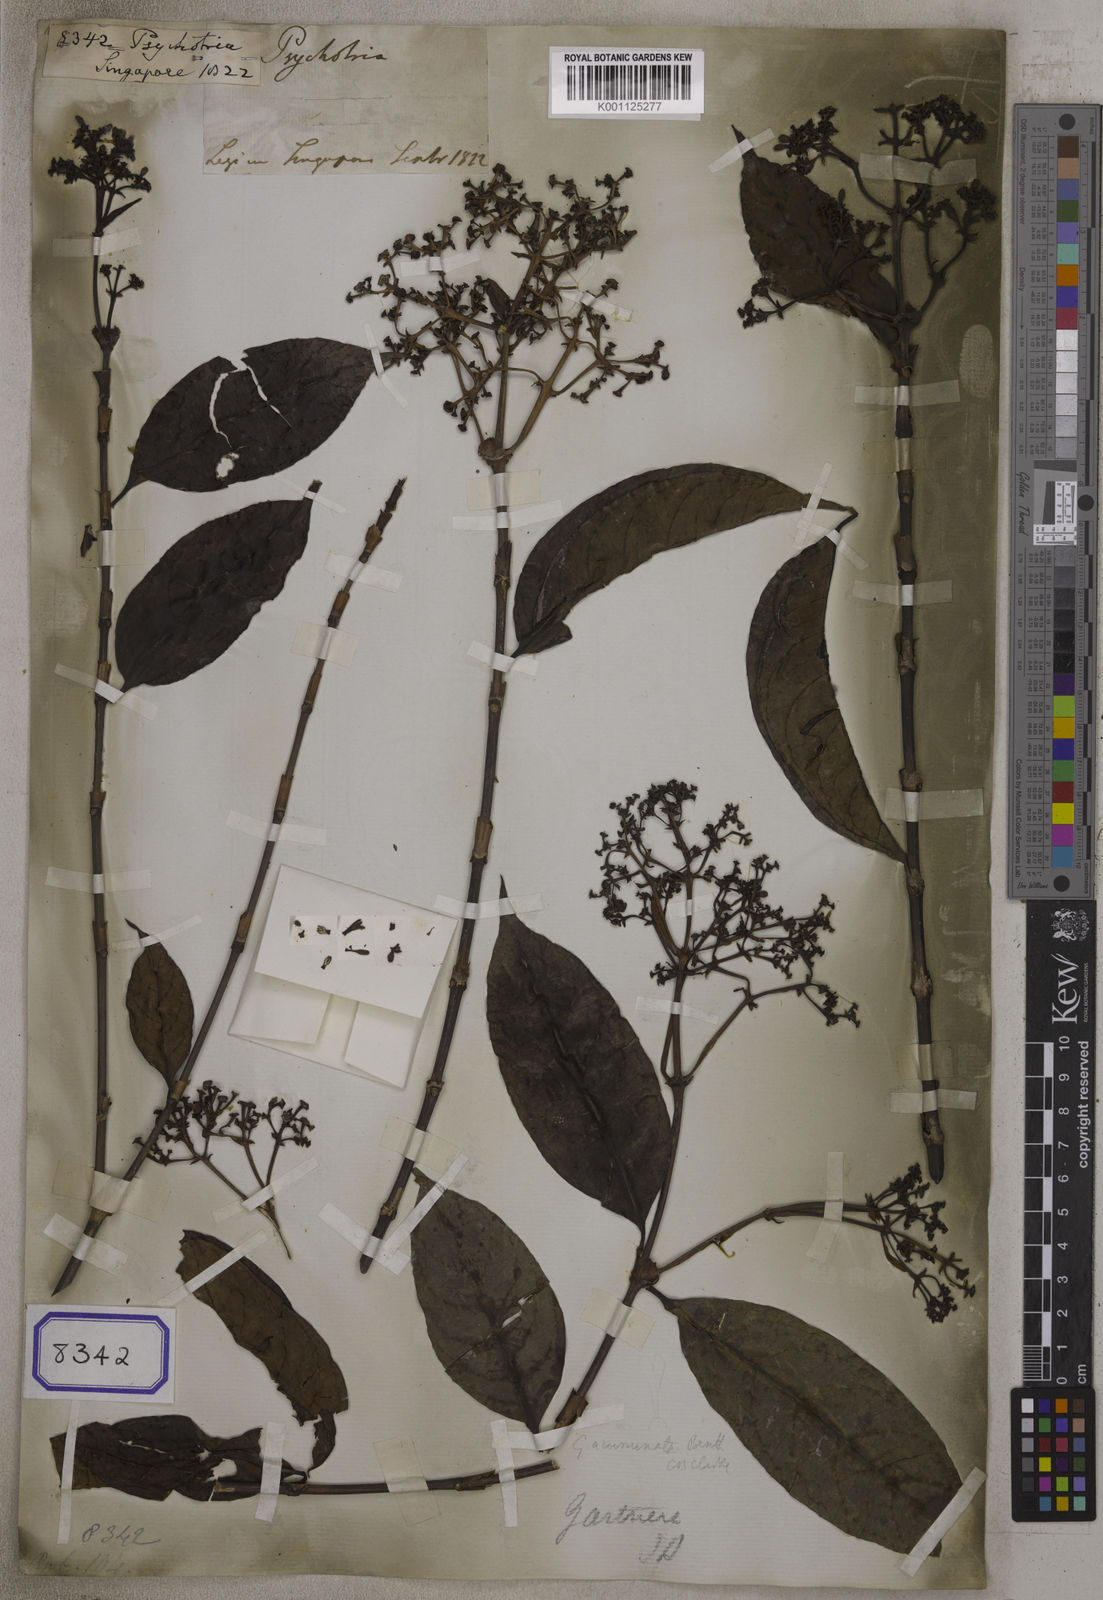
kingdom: Plantae
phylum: Tracheophyta
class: Magnoliopsida
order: Gentianales
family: Rubiaceae
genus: Psychotria
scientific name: Psychotria
